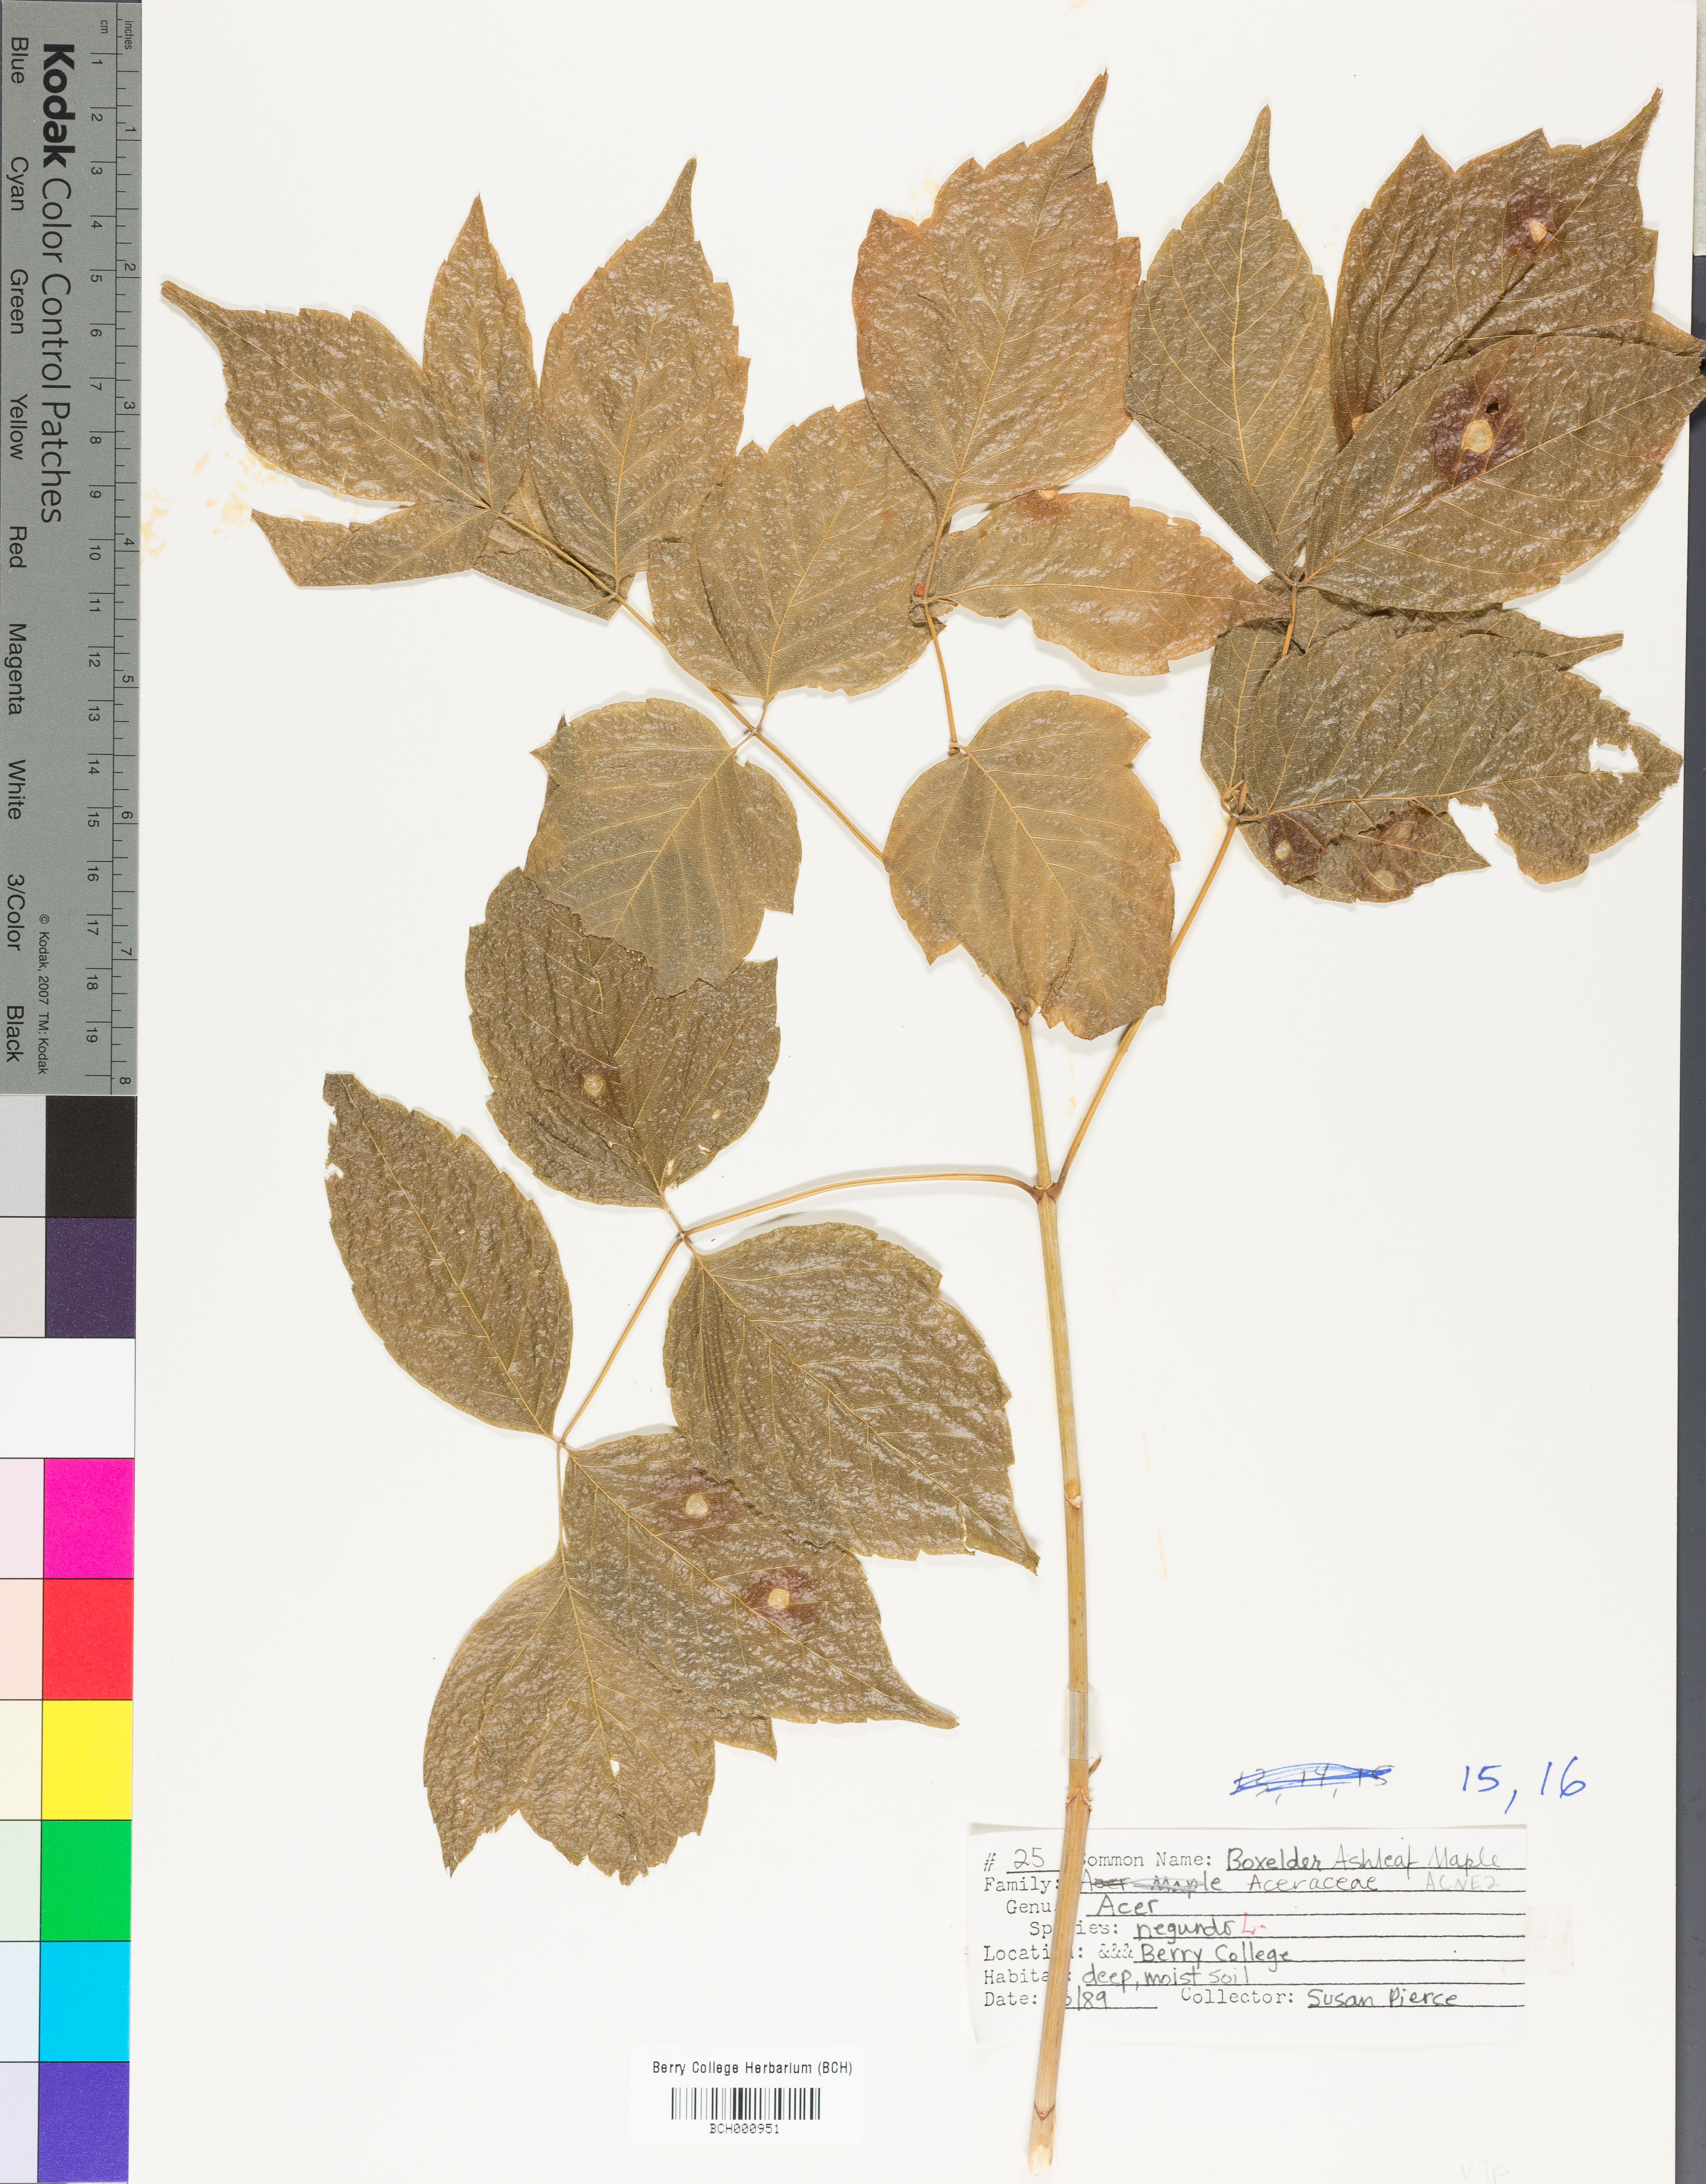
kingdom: Plantae
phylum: Tracheophyta
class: Magnoliopsida
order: Sapindales
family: Sapindaceae
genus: Acer
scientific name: Acer negundo
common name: Ashleaf maple
